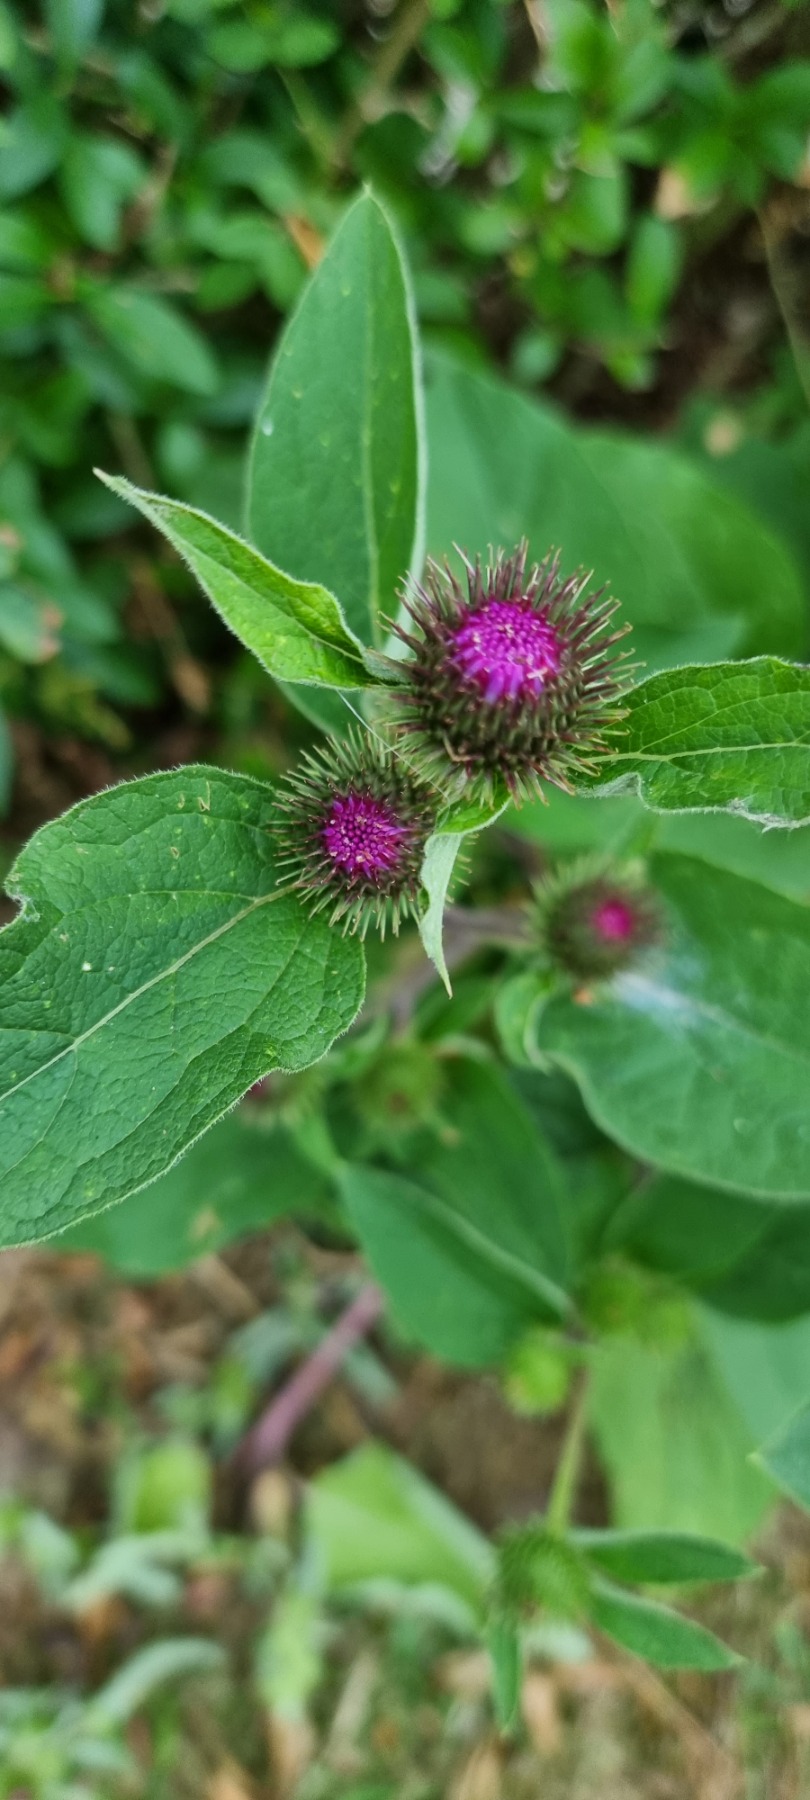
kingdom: Plantae
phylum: Tracheophyta
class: Magnoliopsida
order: Asterales
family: Asteraceae
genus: Arctium
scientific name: Arctium nemorosum
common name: Skov-burre
